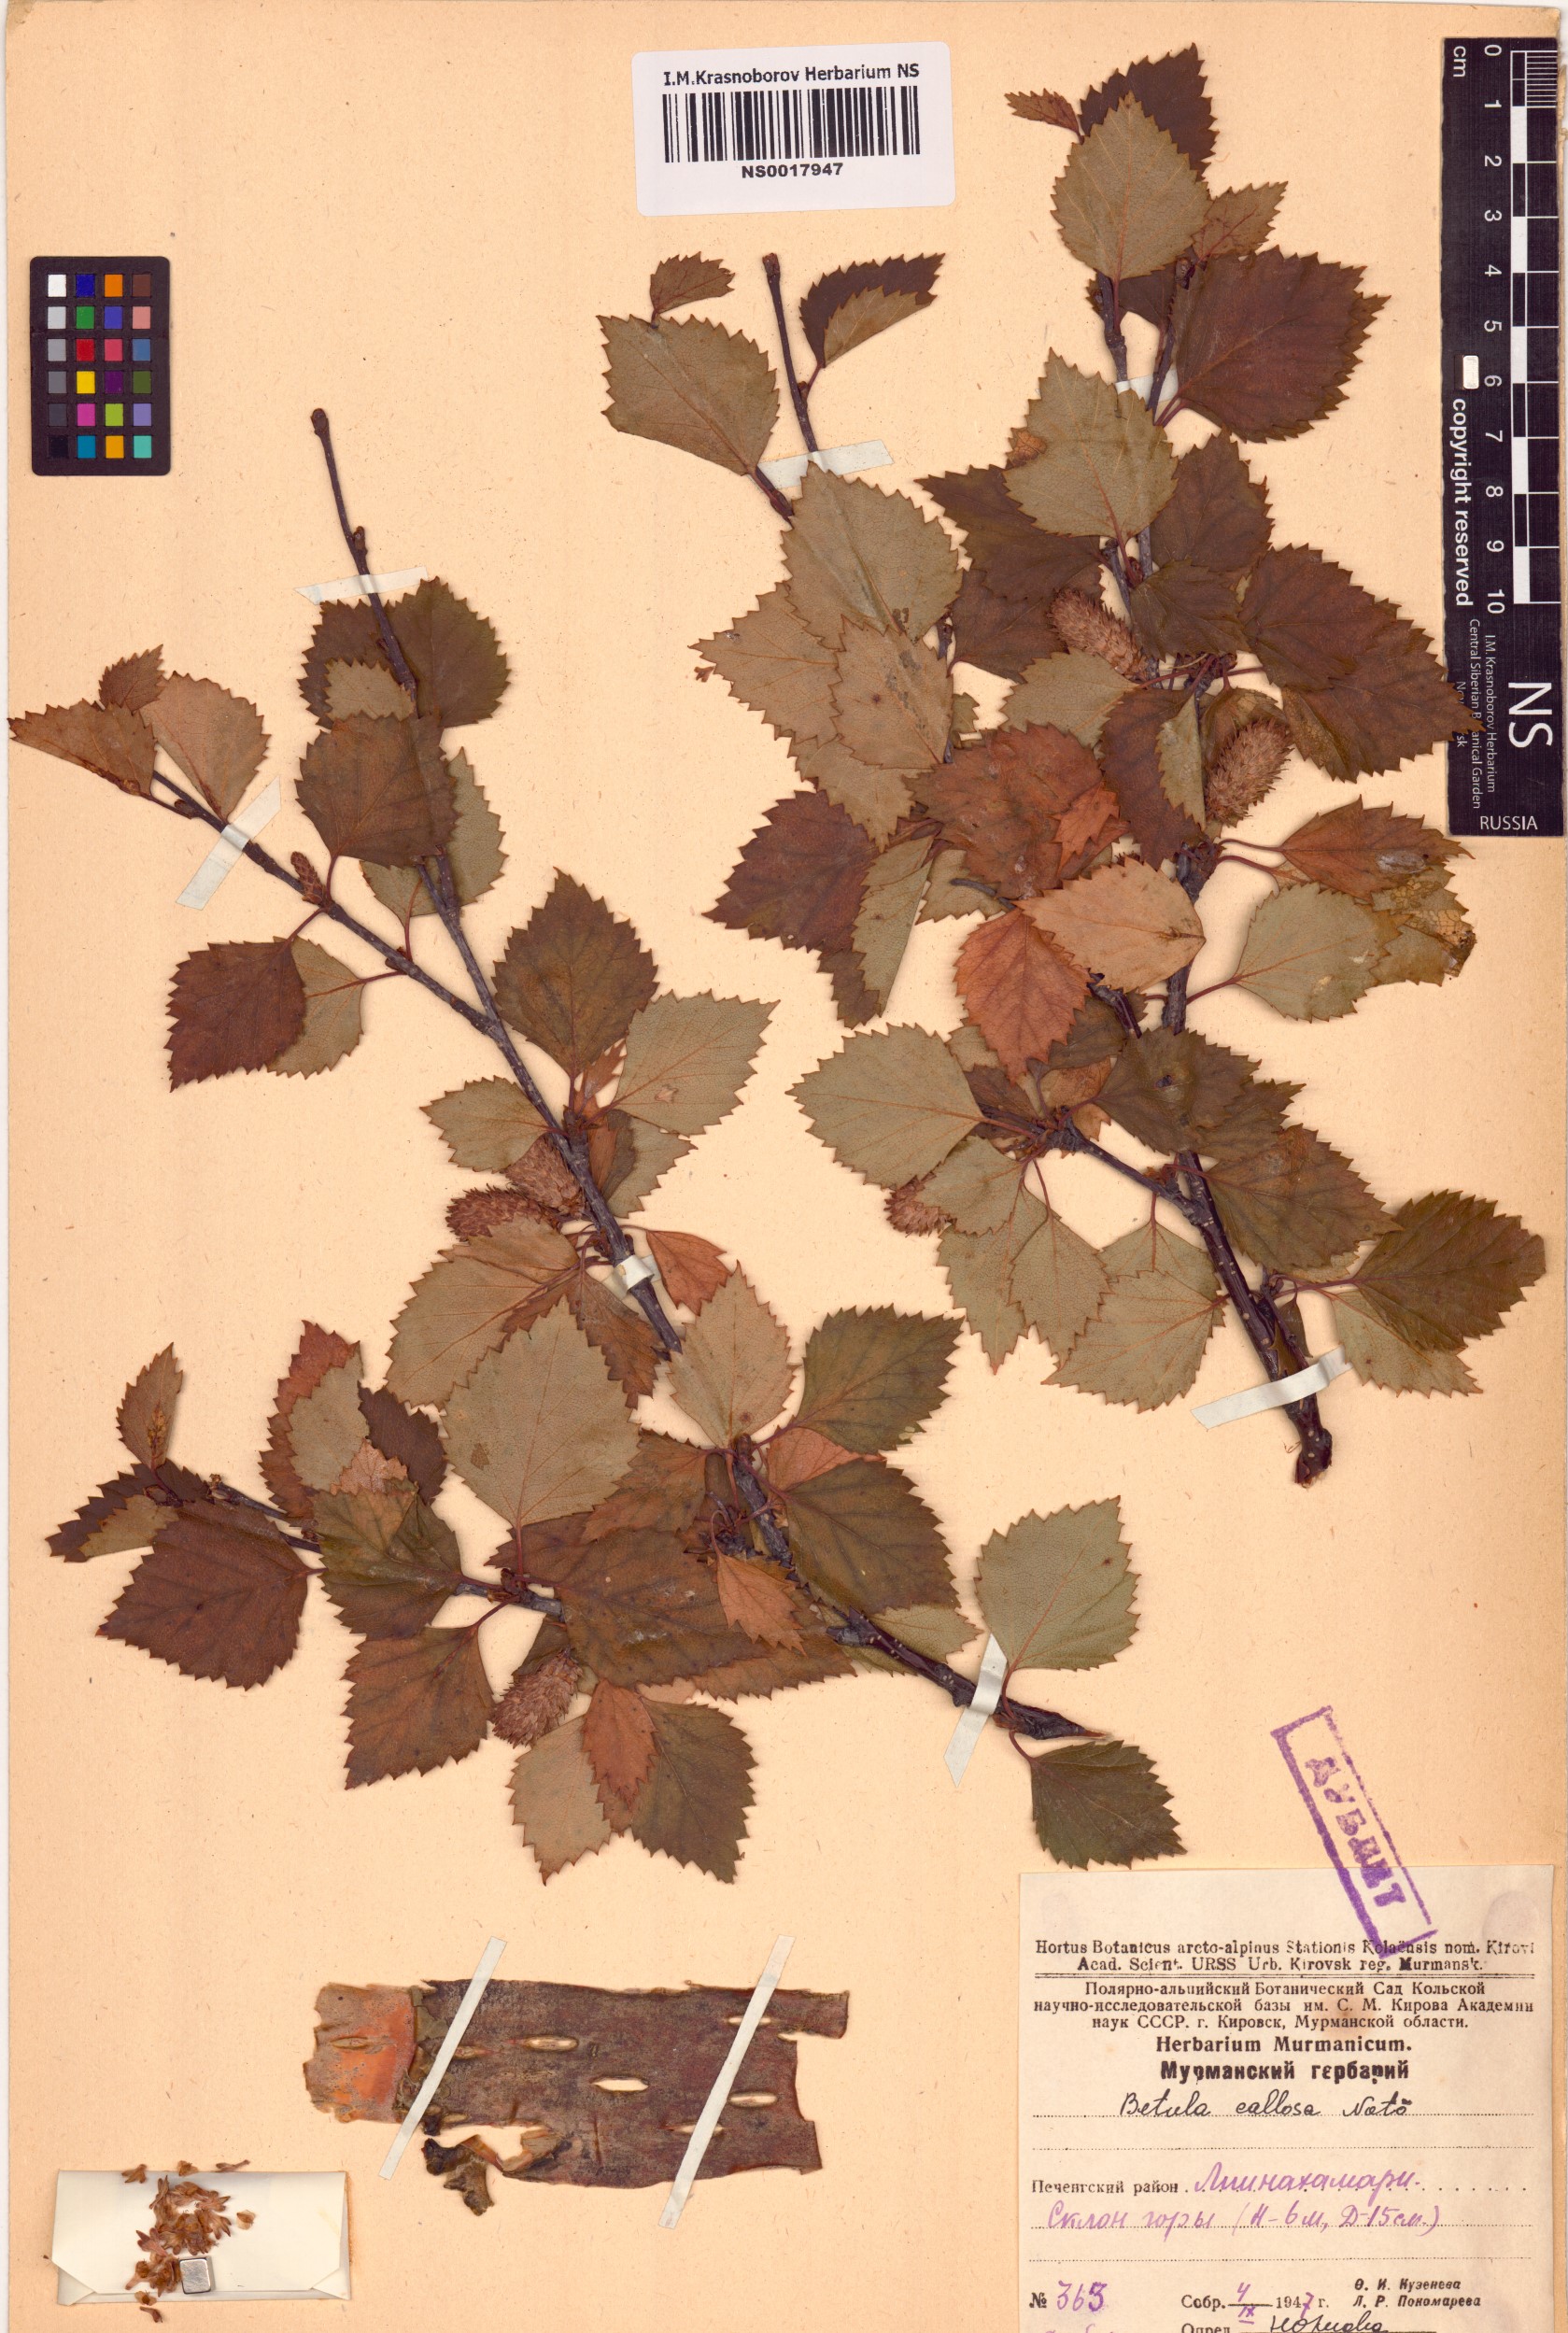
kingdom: Plantae
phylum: Tracheophyta
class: Magnoliopsida
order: Fagales
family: Betulaceae
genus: Betula
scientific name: Betula pubescens
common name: Downy birch
